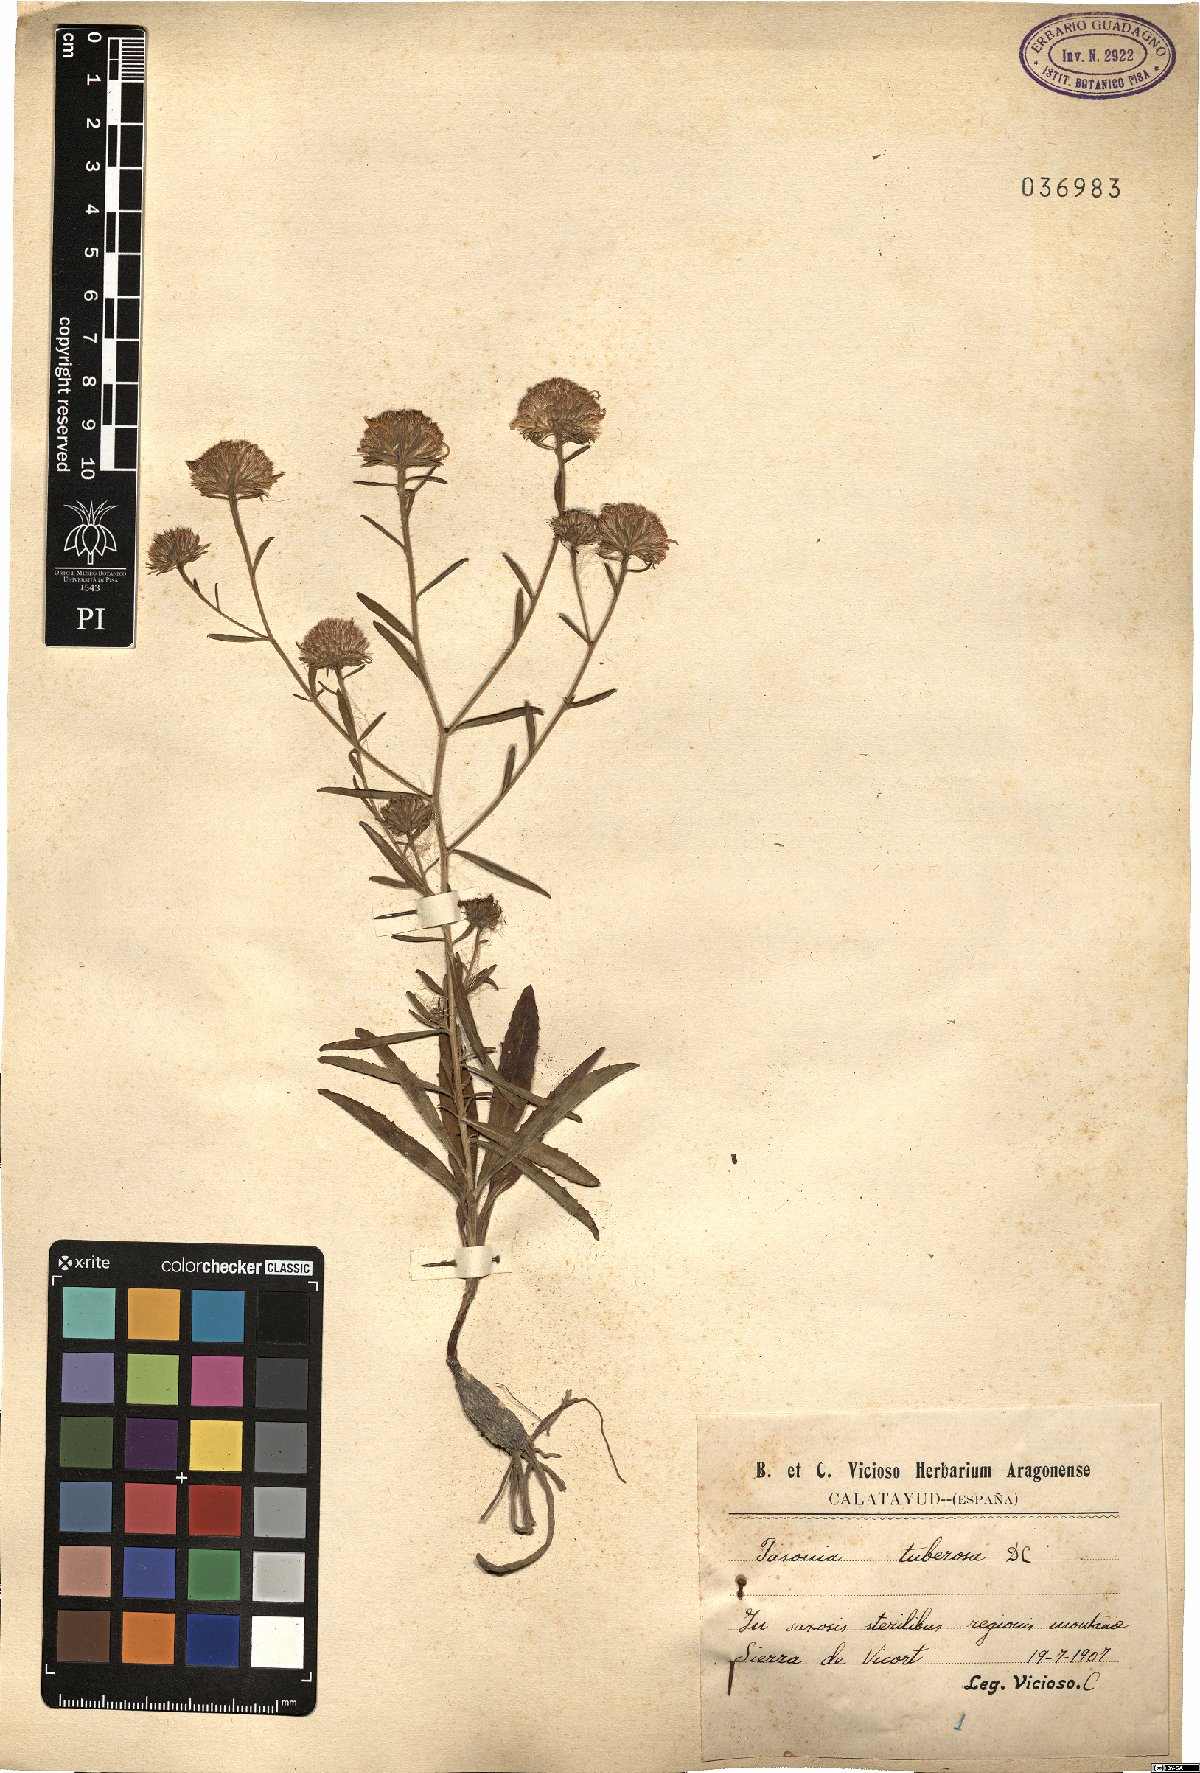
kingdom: Plantae
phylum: Tracheophyta
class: Magnoliopsida
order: Asterales
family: Asteraceae
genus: Jasonia
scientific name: Jasonia tuberosa
